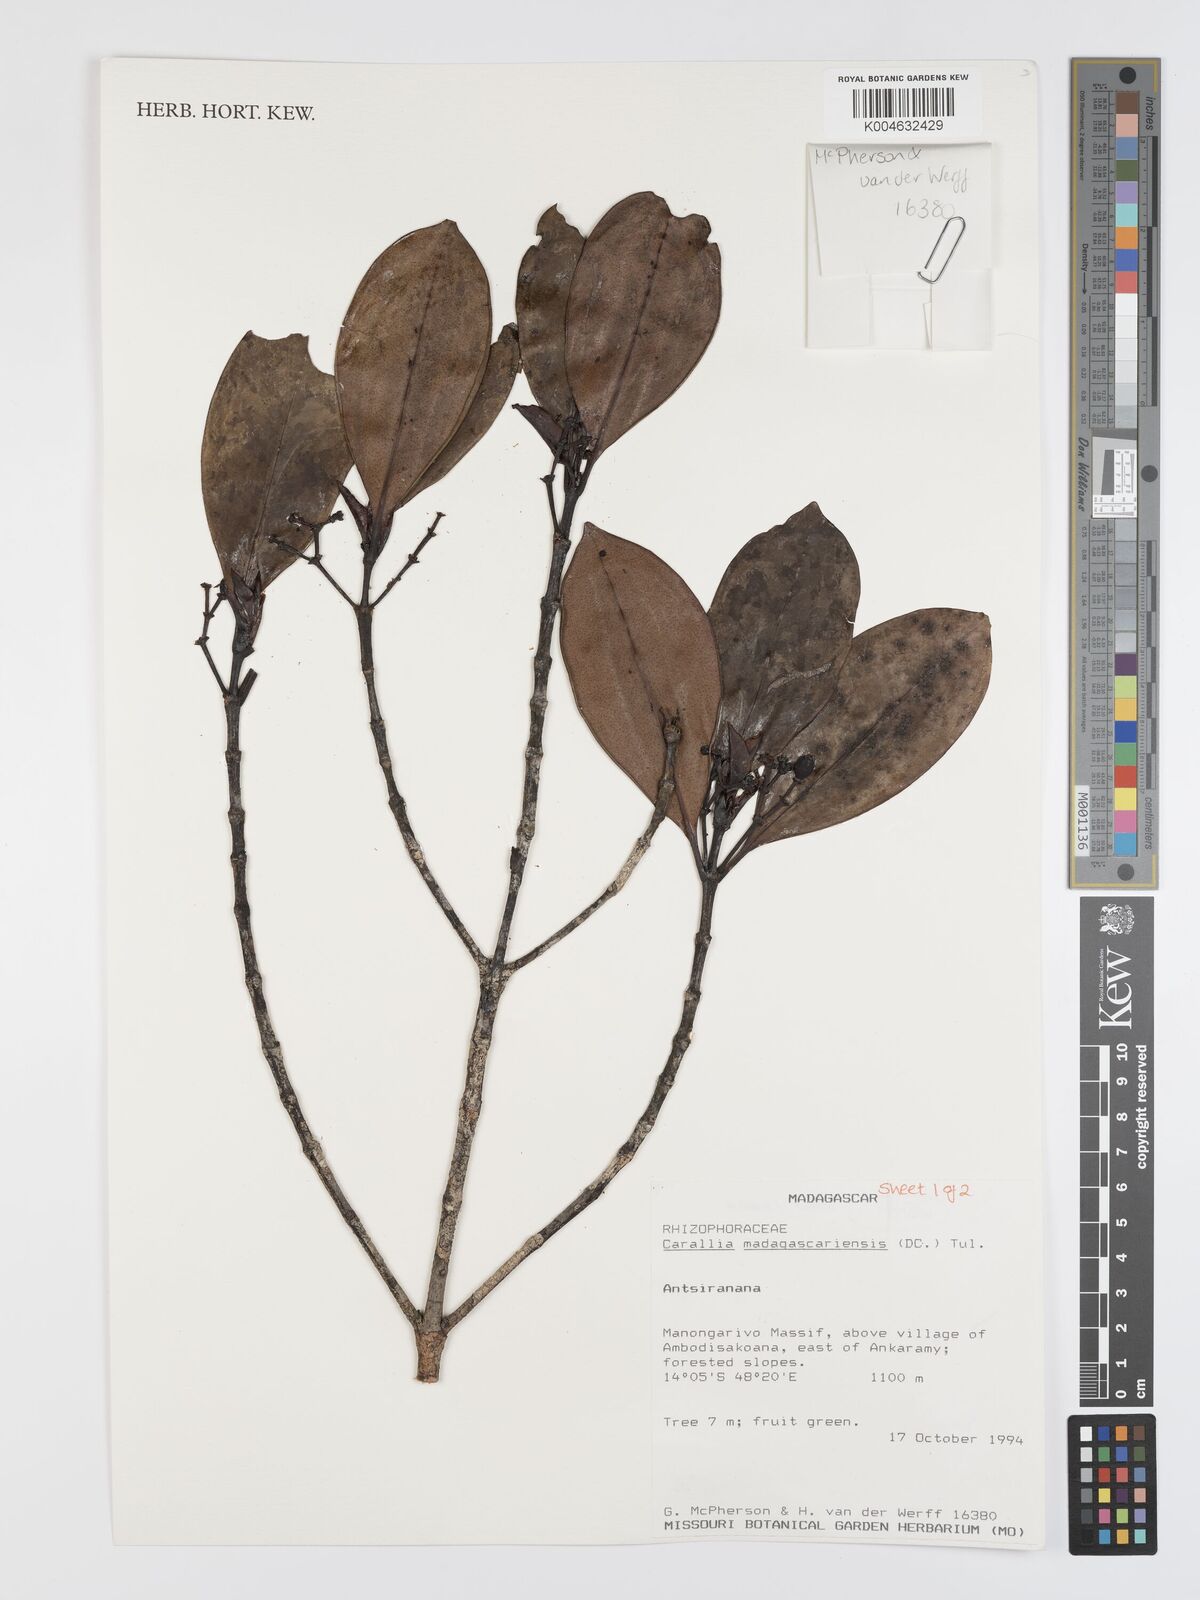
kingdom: Plantae
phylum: Tracheophyta
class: Magnoliopsida
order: Malpighiales
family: Rhizophoraceae
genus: Carallia
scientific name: Carallia brachiata
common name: Carallawood
